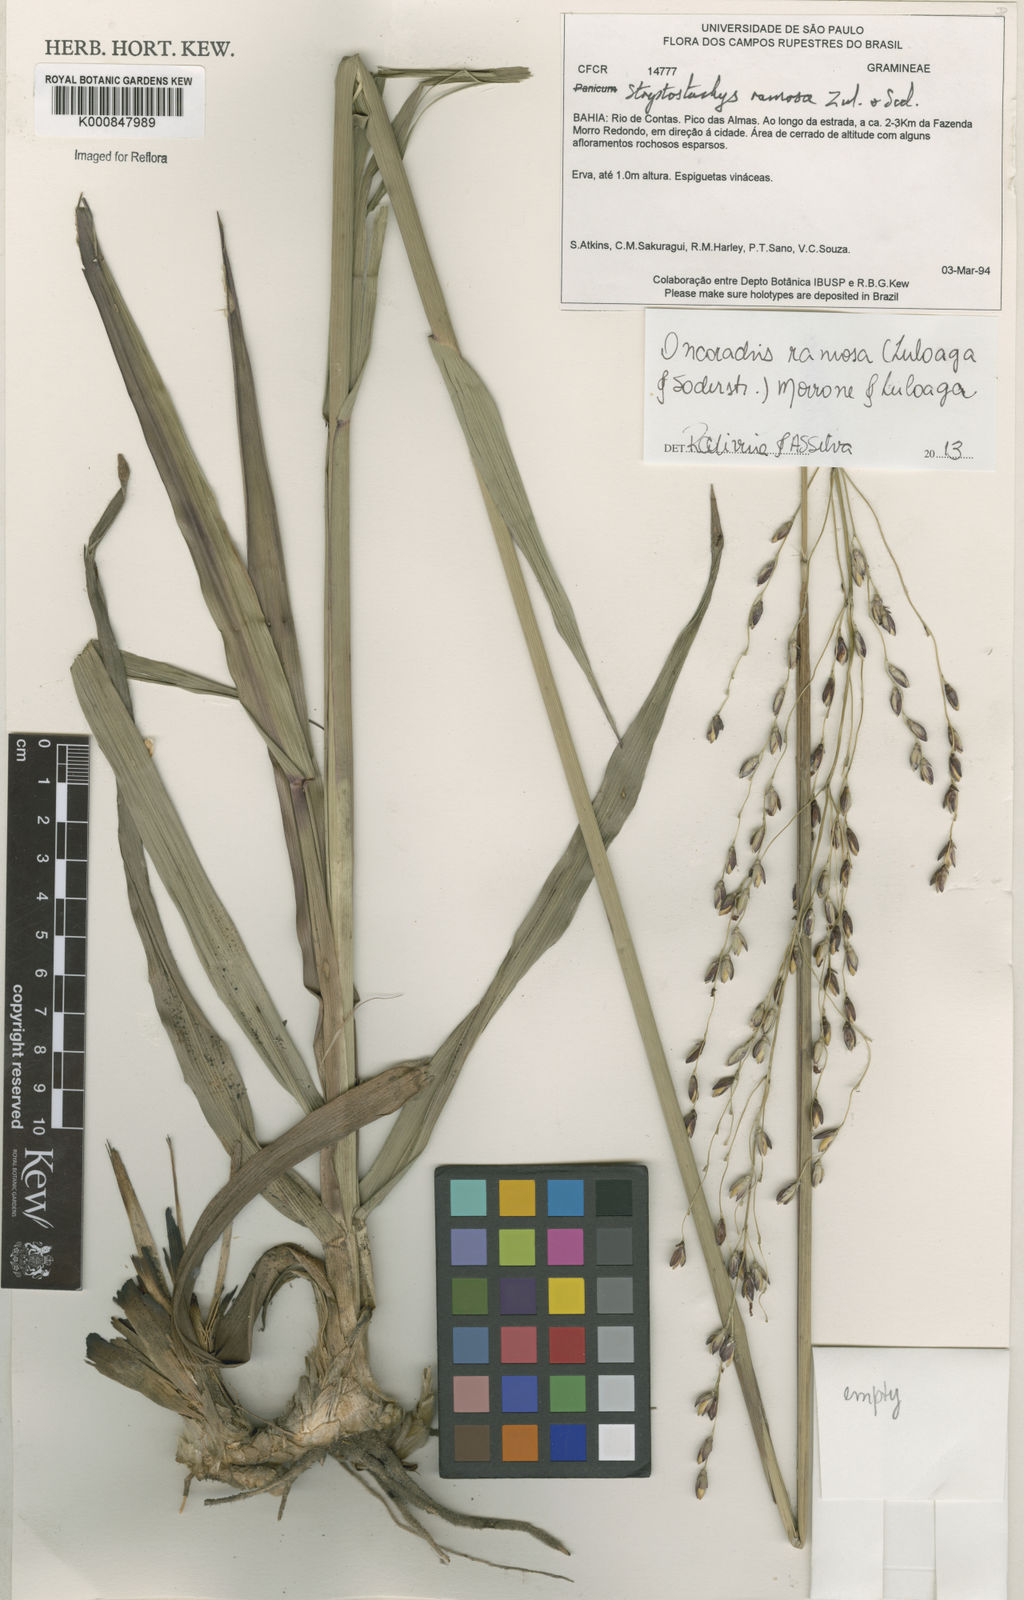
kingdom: Plantae
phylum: Tracheophyta
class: Liliopsida
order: Poales
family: Poaceae
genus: Oncorachis
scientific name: Oncorachis ramosa
